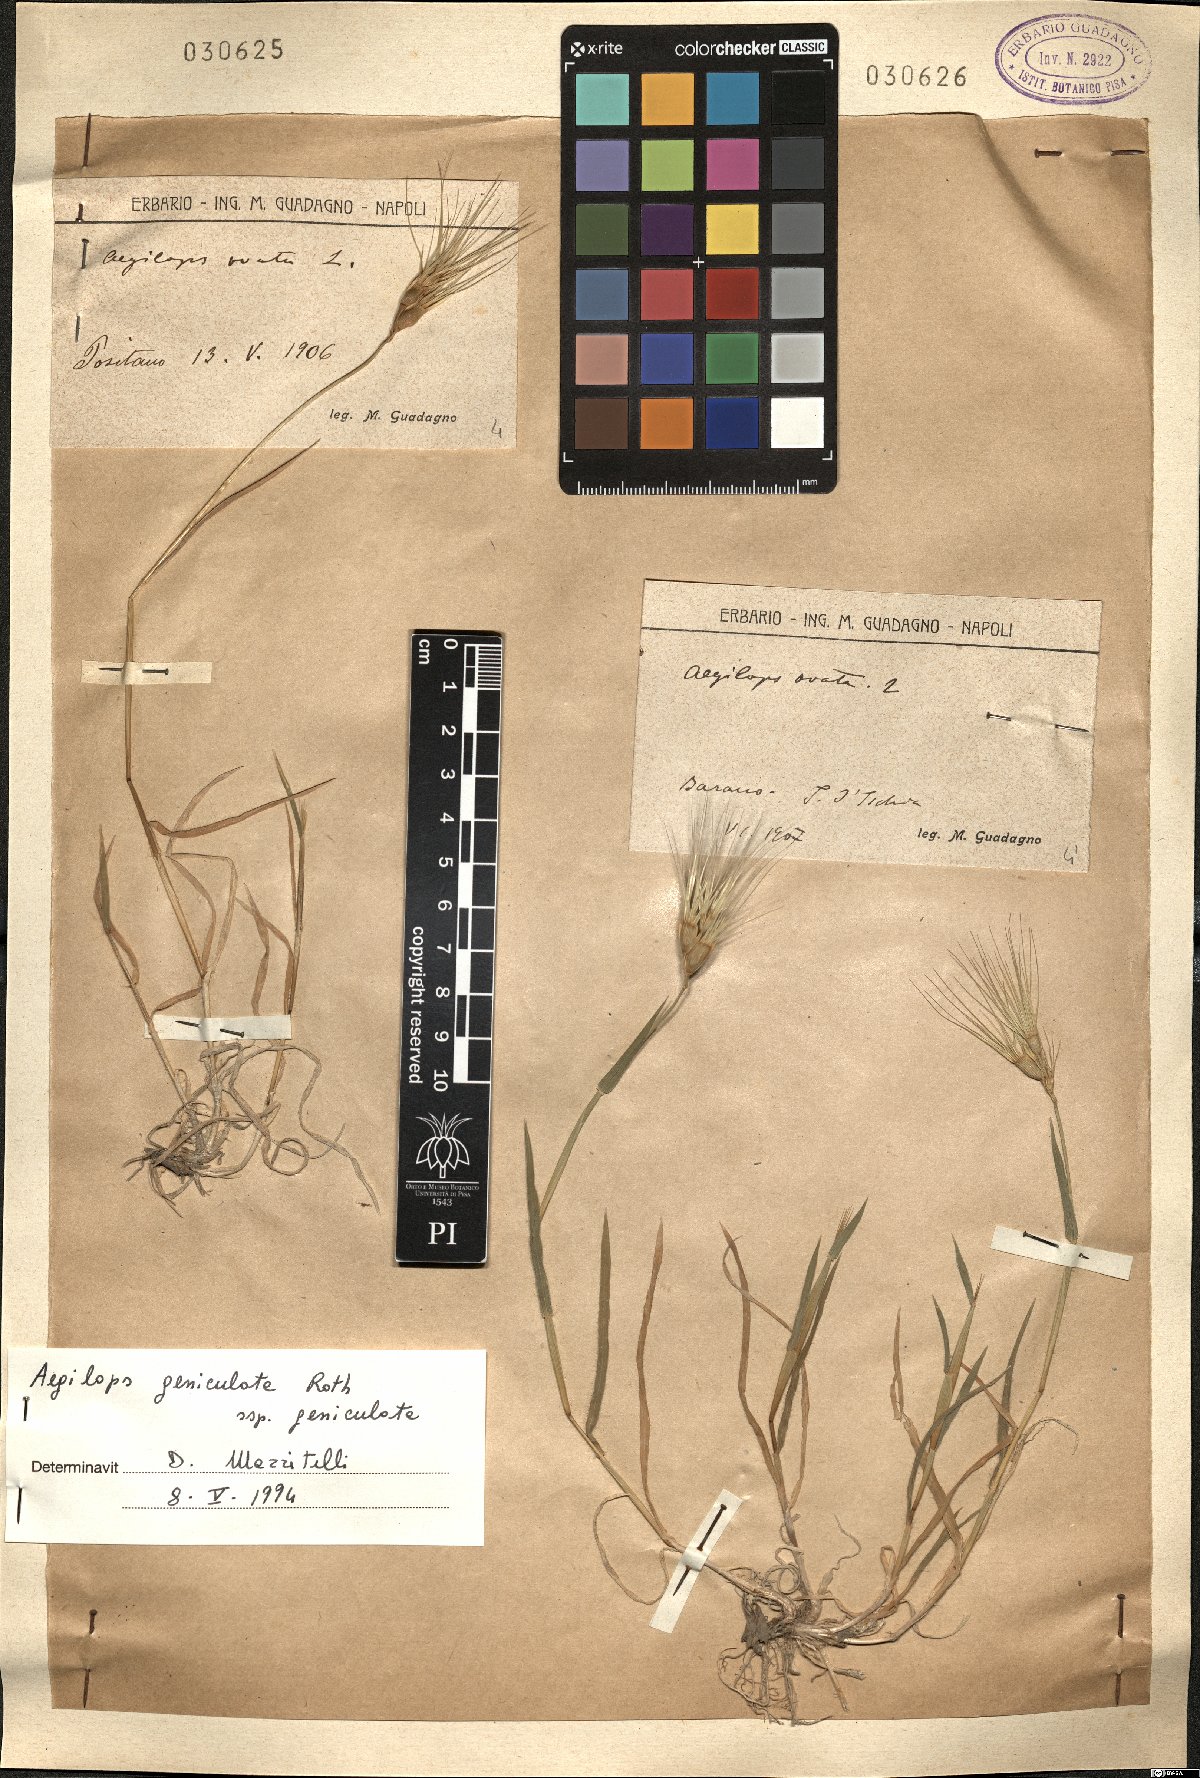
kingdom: Plantae
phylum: Tracheophyta
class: Liliopsida
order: Poales
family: Poaceae
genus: Aegilops
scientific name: Aegilops geniculata
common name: Ovate goat grass
